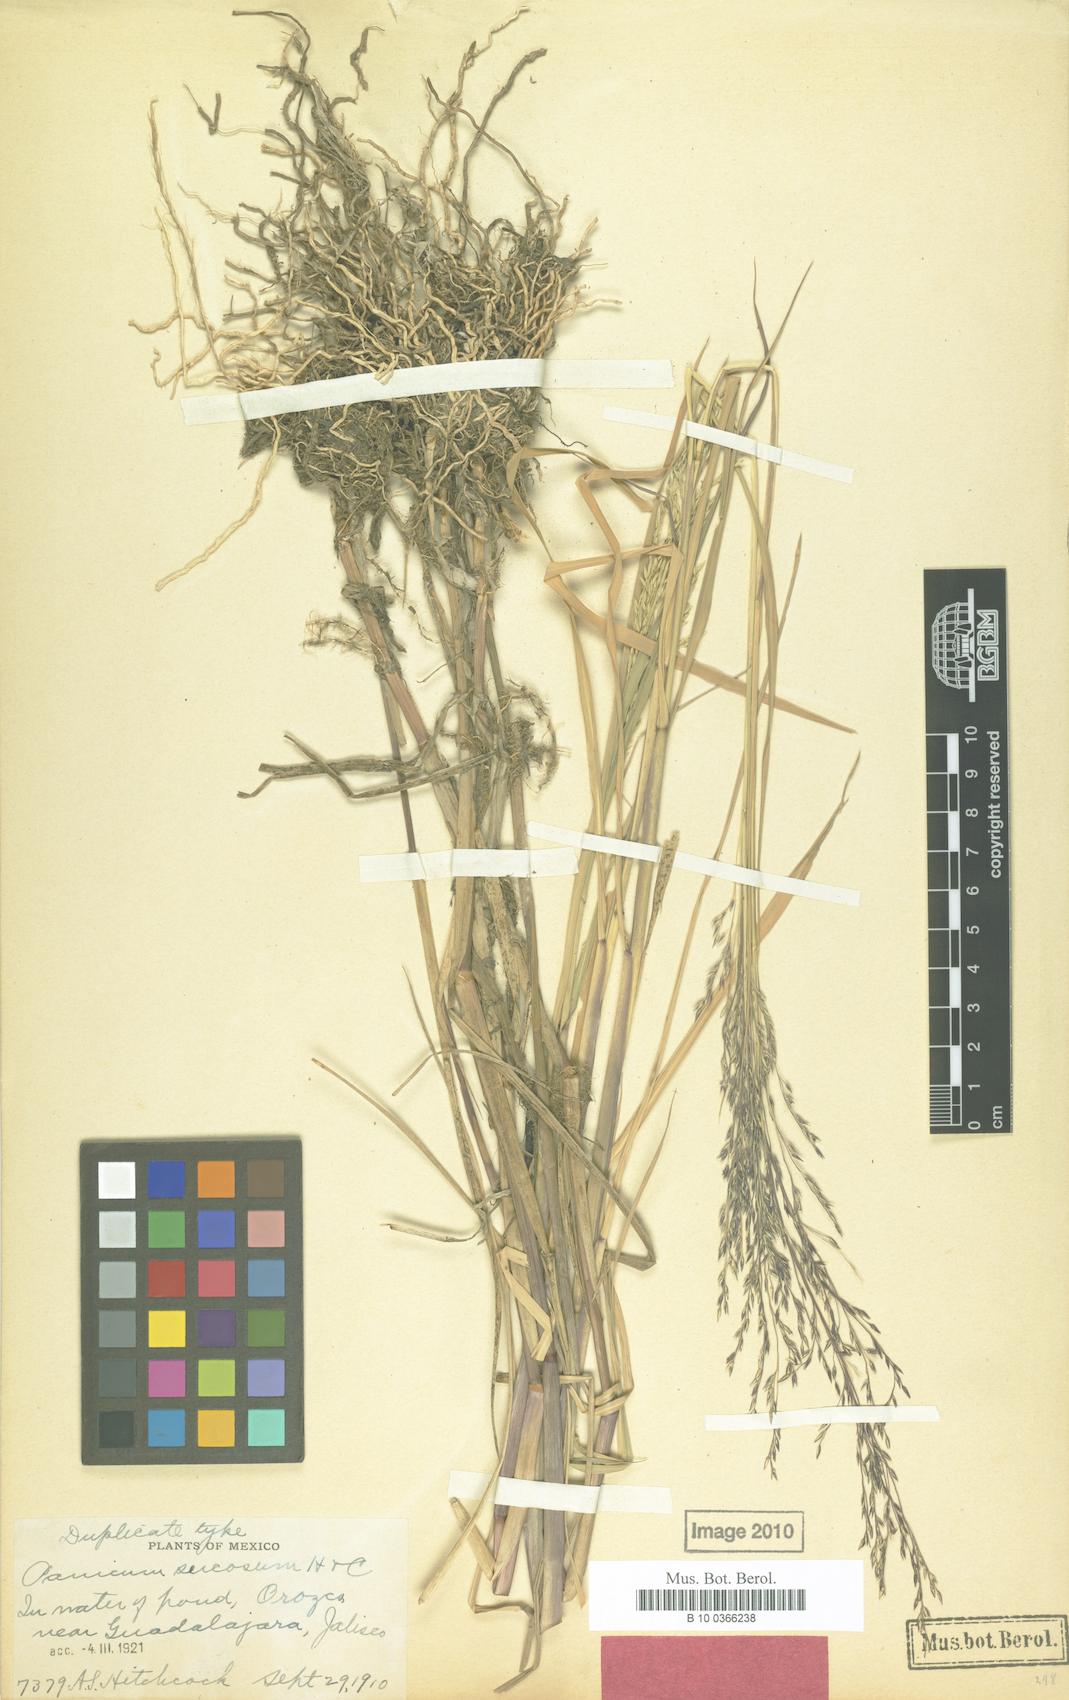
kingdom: Plantae
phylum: Tracheophyta
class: Liliopsida
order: Poales
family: Poaceae
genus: Louisiella
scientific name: Louisiella elephantipes
